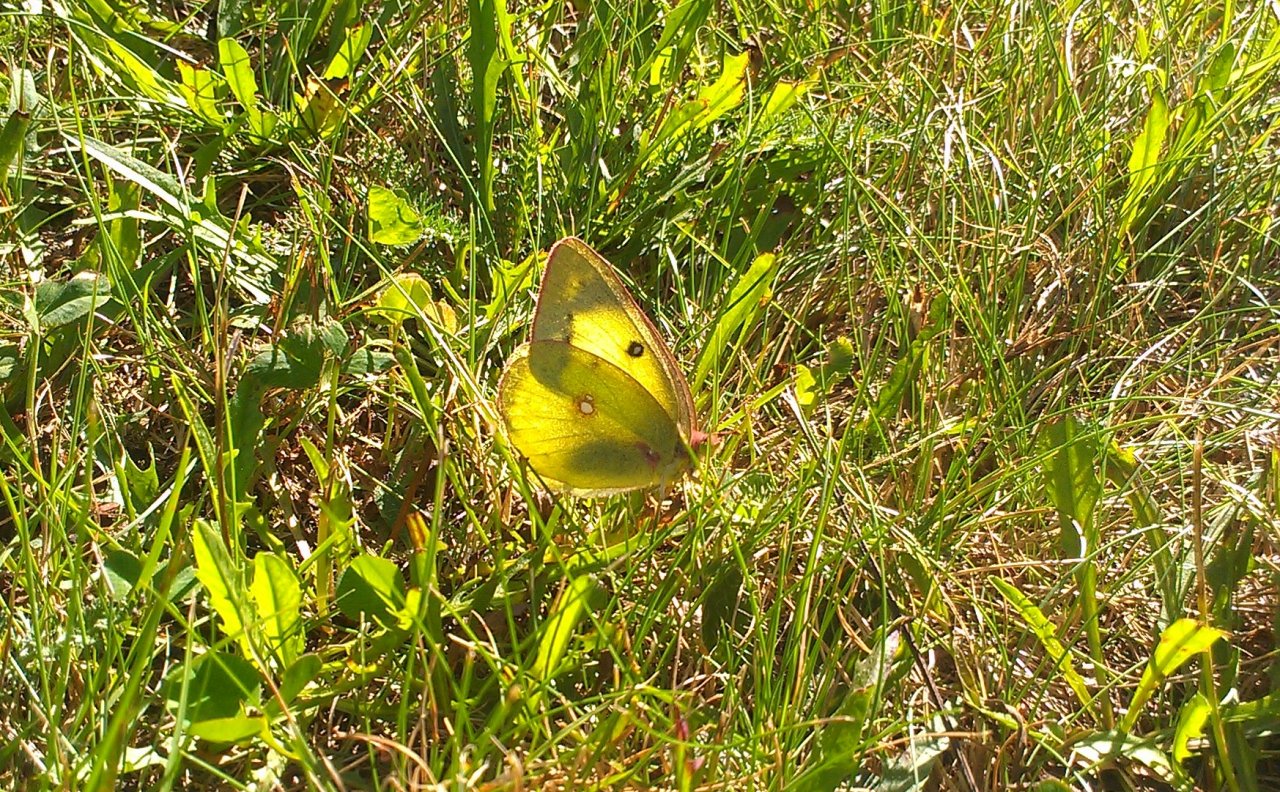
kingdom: Animalia
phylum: Arthropoda
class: Insecta
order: Lepidoptera
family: Pieridae
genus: Colias
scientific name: Colias philodice
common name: Clouded Sulphur
